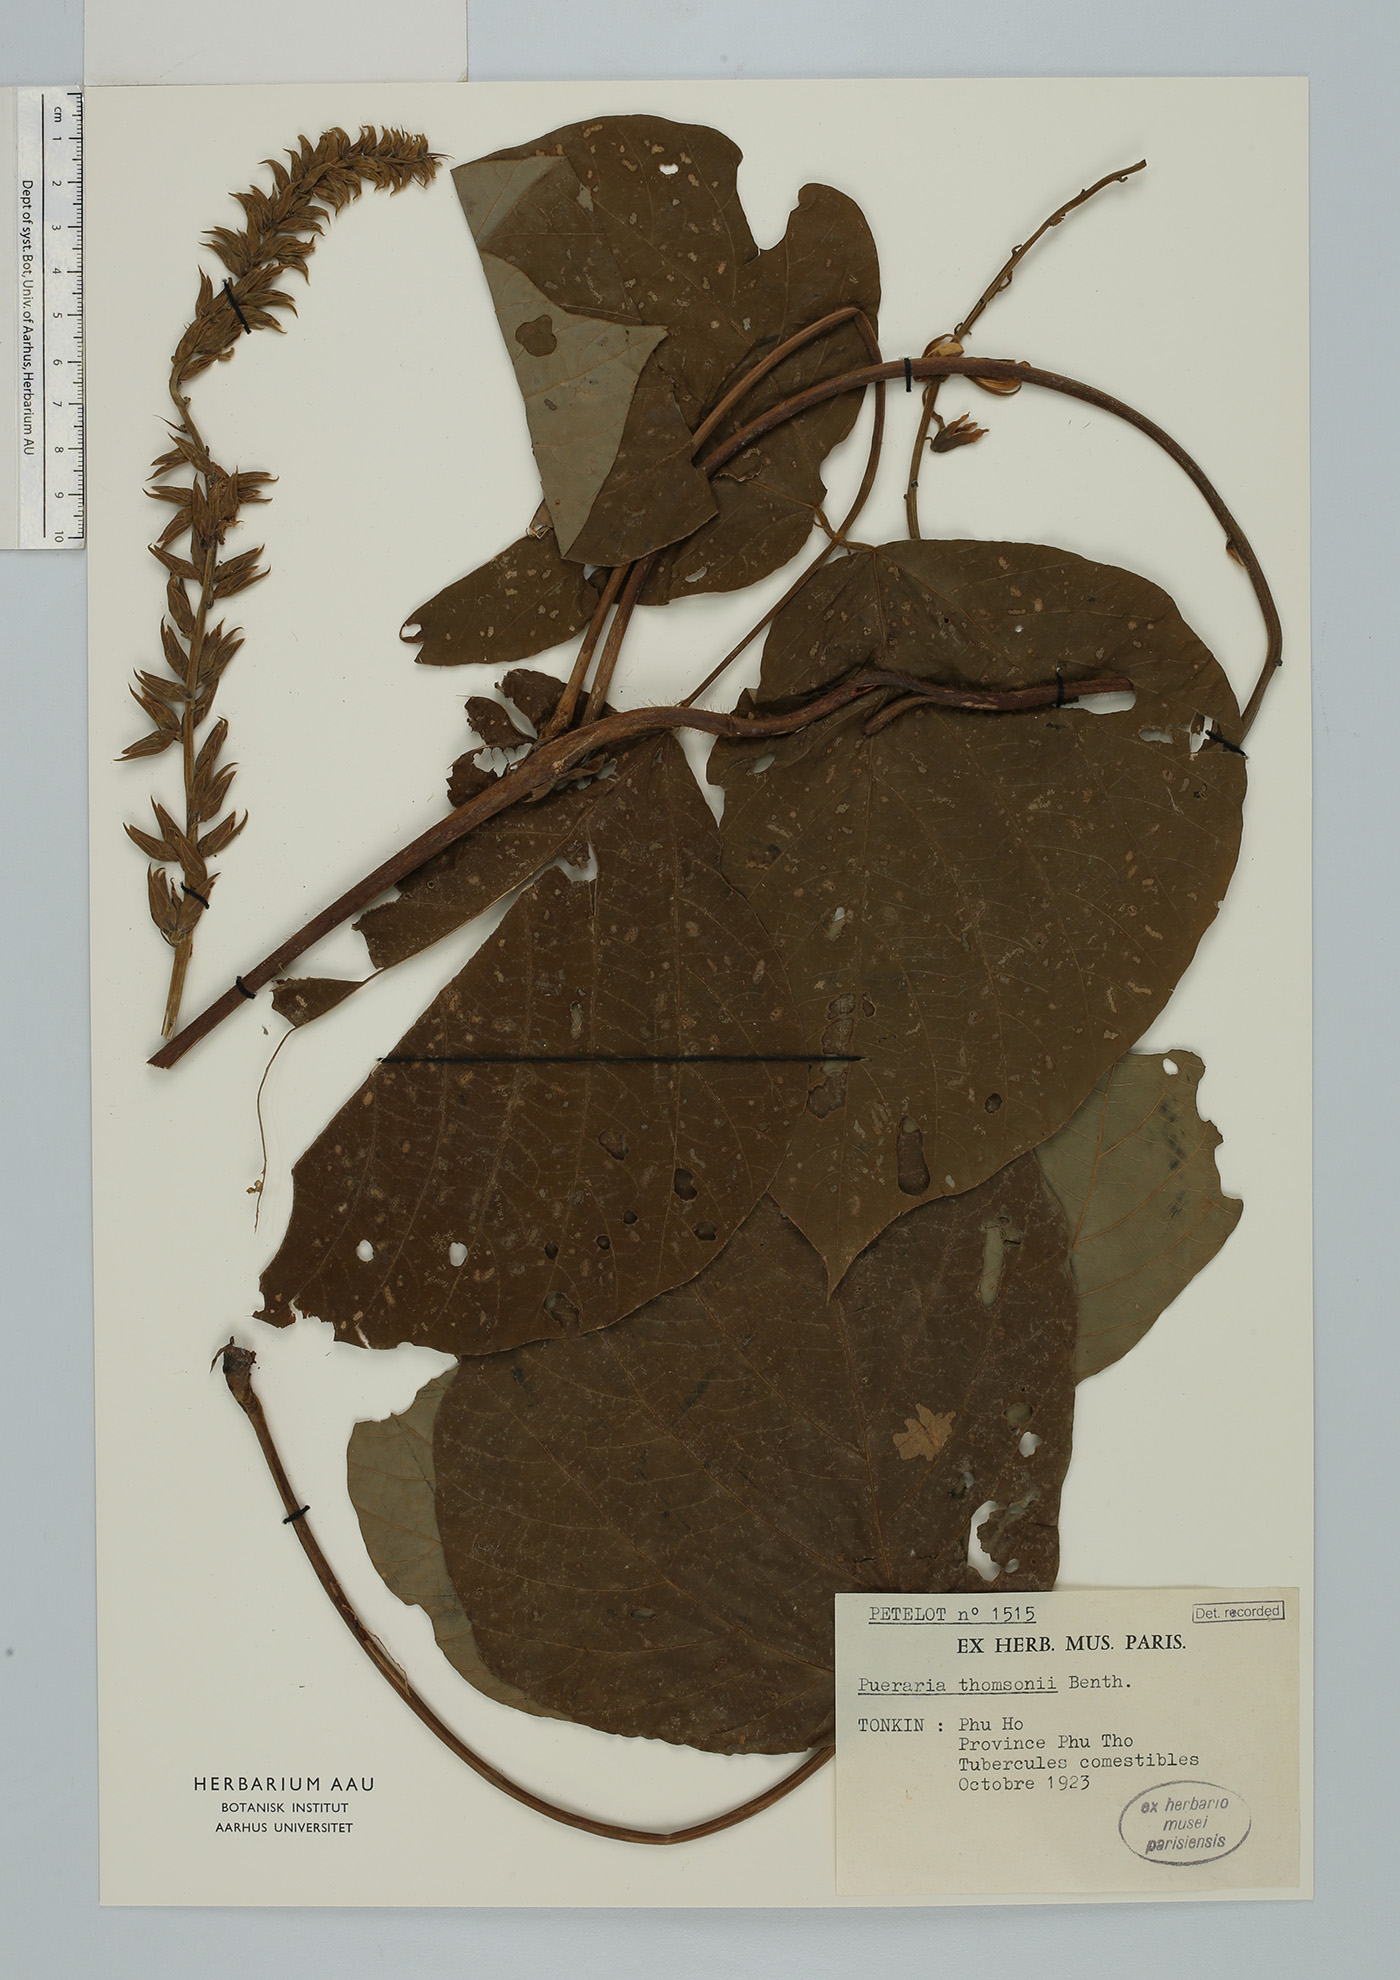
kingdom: Plantae
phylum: Tracheophyta
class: Magnoliopsida
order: Fabales
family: Fabaceae
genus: Pueraria
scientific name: Pueraria montana
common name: Kudzu
